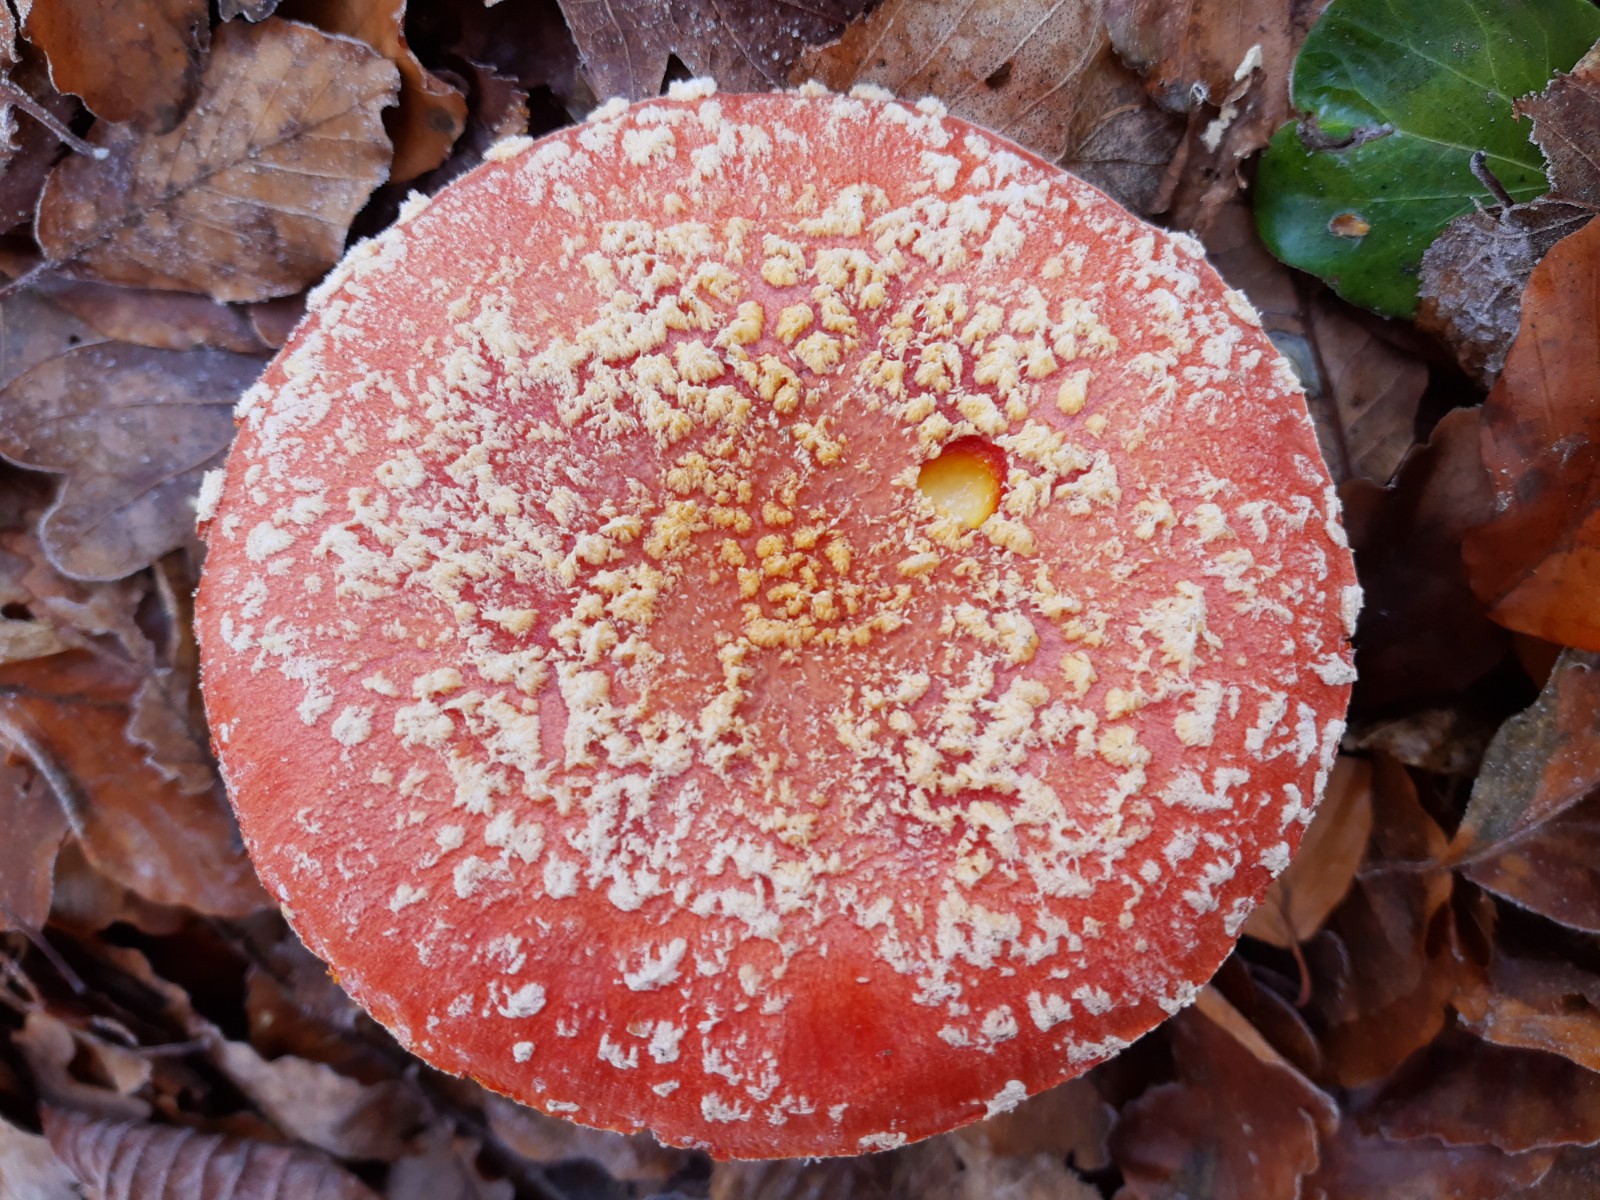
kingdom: Fungi
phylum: Basidiomycota
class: Agaricomycetes
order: Agaricales
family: Amanitaceae
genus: Amanita
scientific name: Amanita muscaria
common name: rød fluesvamp
